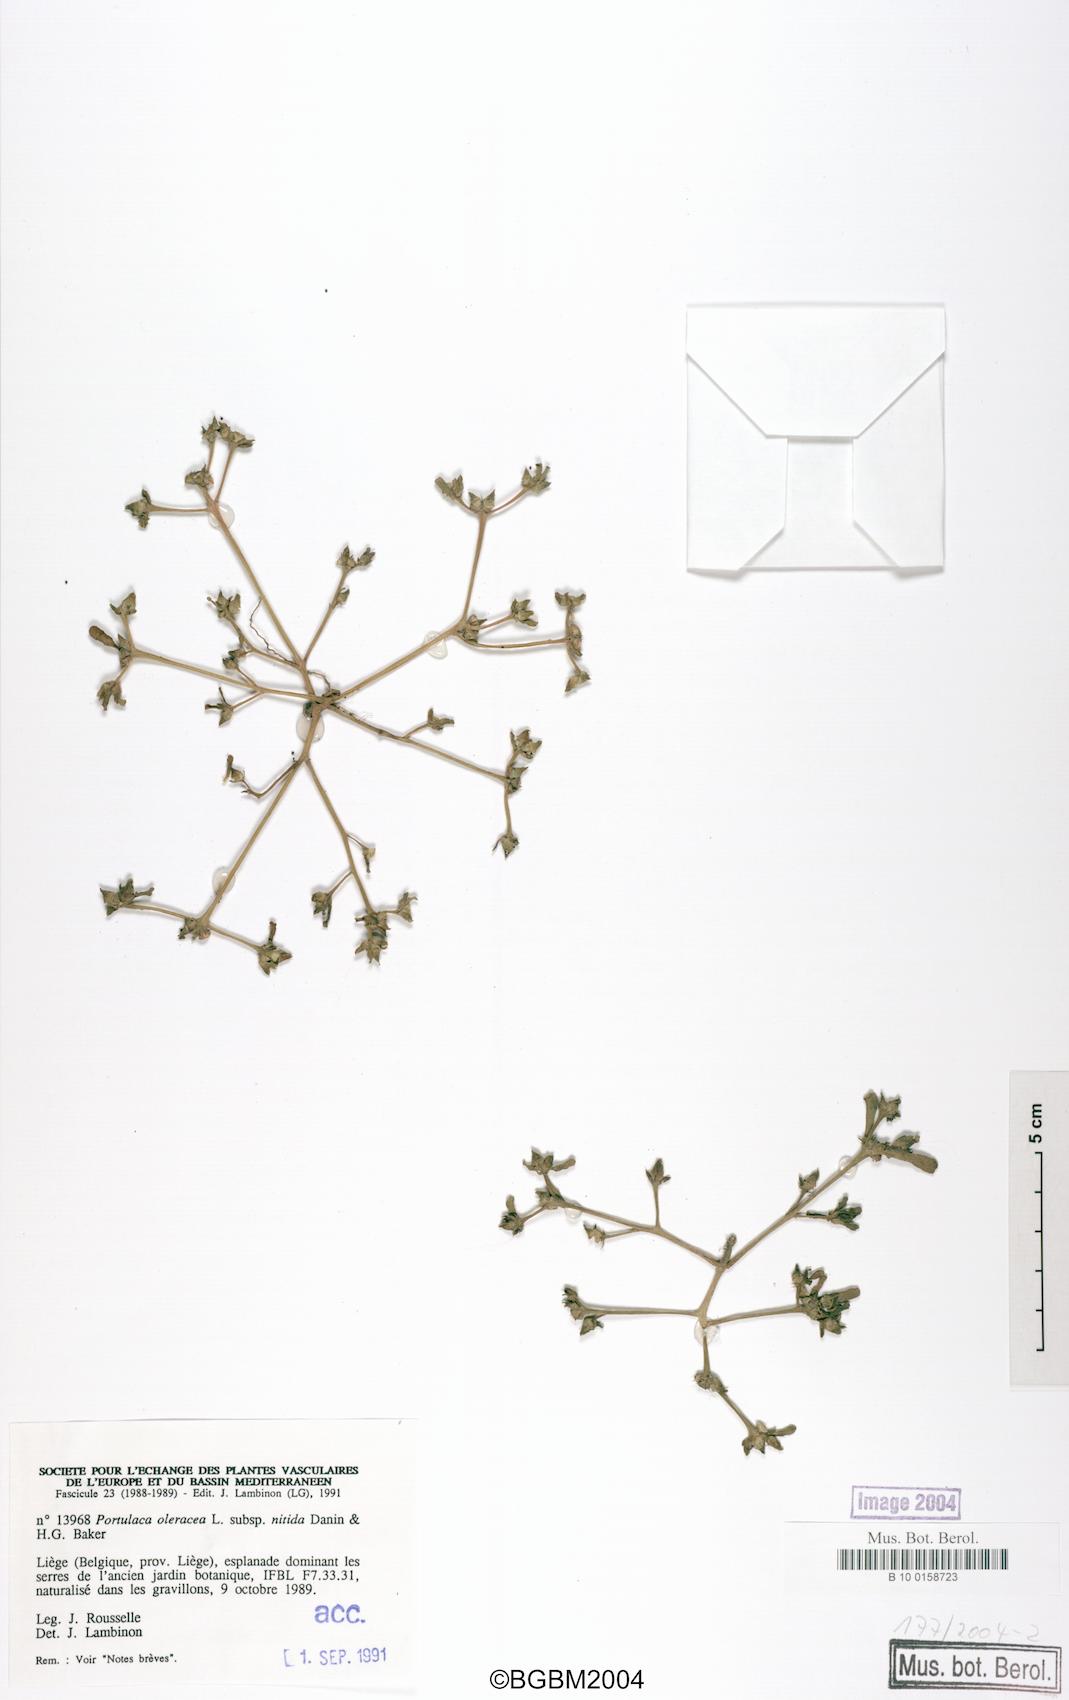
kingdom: Plantae
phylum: Tracheophyta
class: Magnoliopsida
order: Caryophyllales
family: Portulacaceae
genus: Portulaca
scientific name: Portulaca nitida
